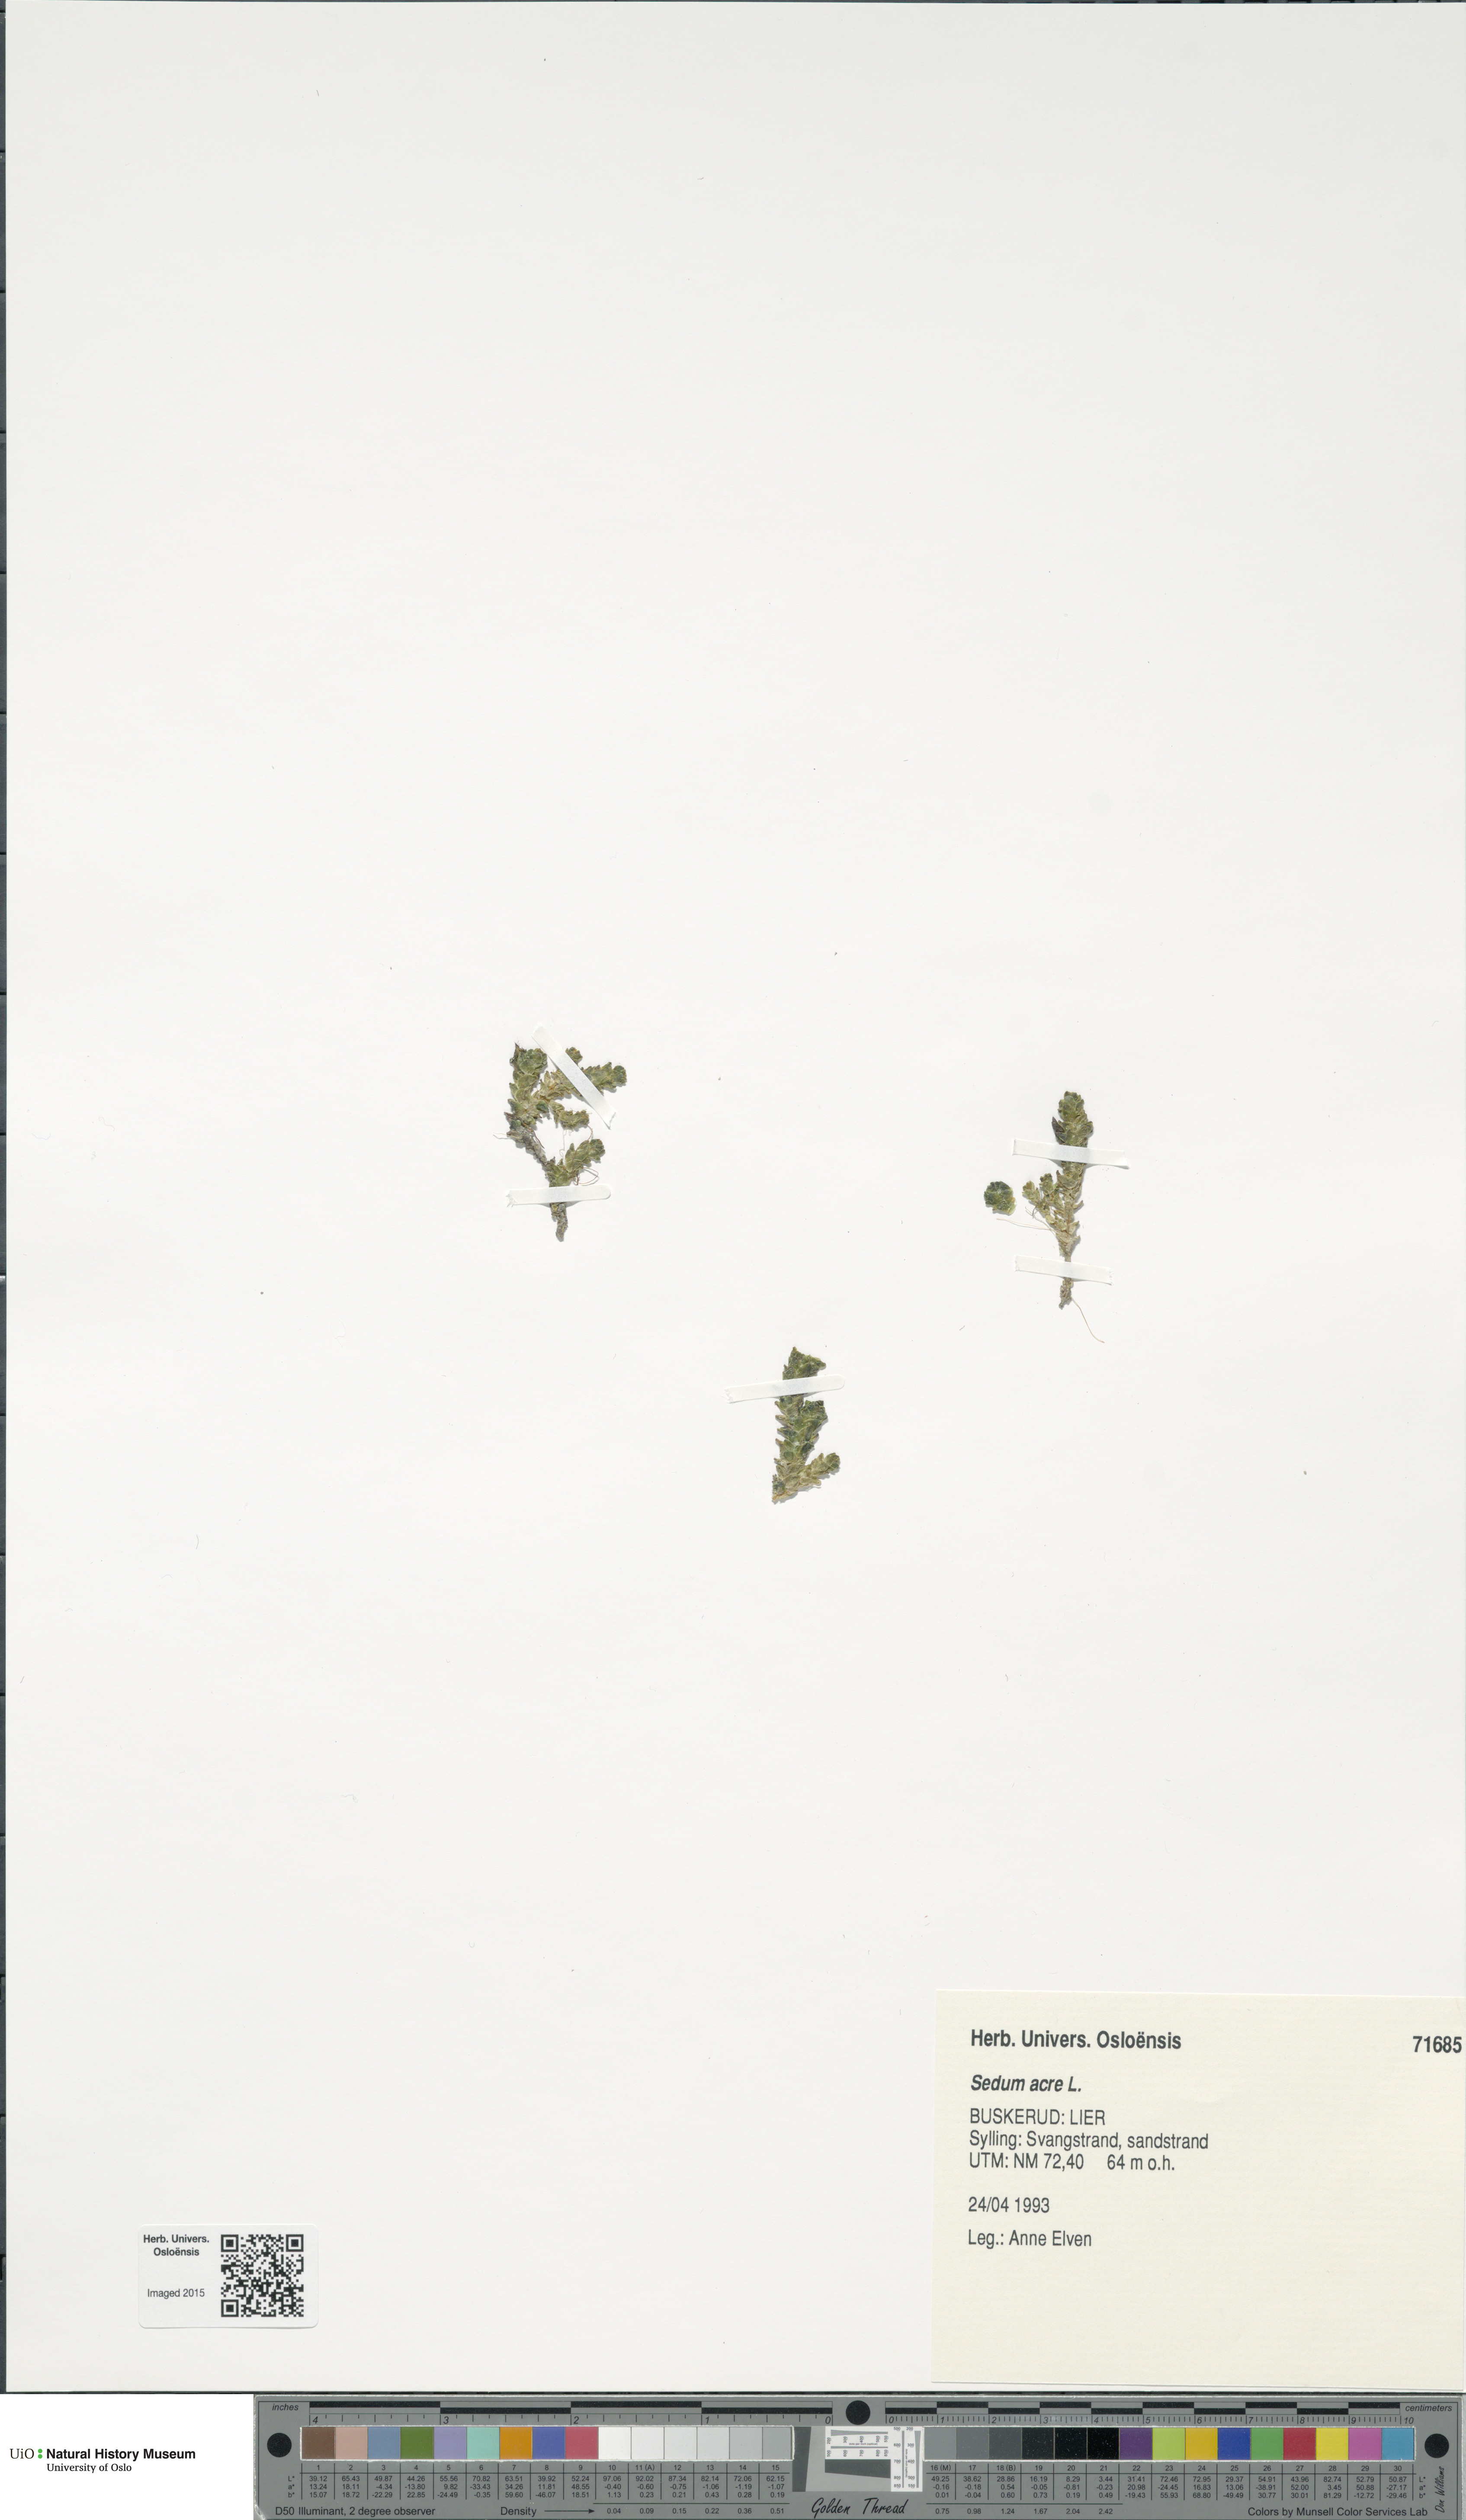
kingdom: Plantae
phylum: Tracheophyta
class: Magnoliopsida
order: Saxifragales
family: Crassulaceae
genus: Sedum
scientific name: Sedum acre
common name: Biting stonecrop
